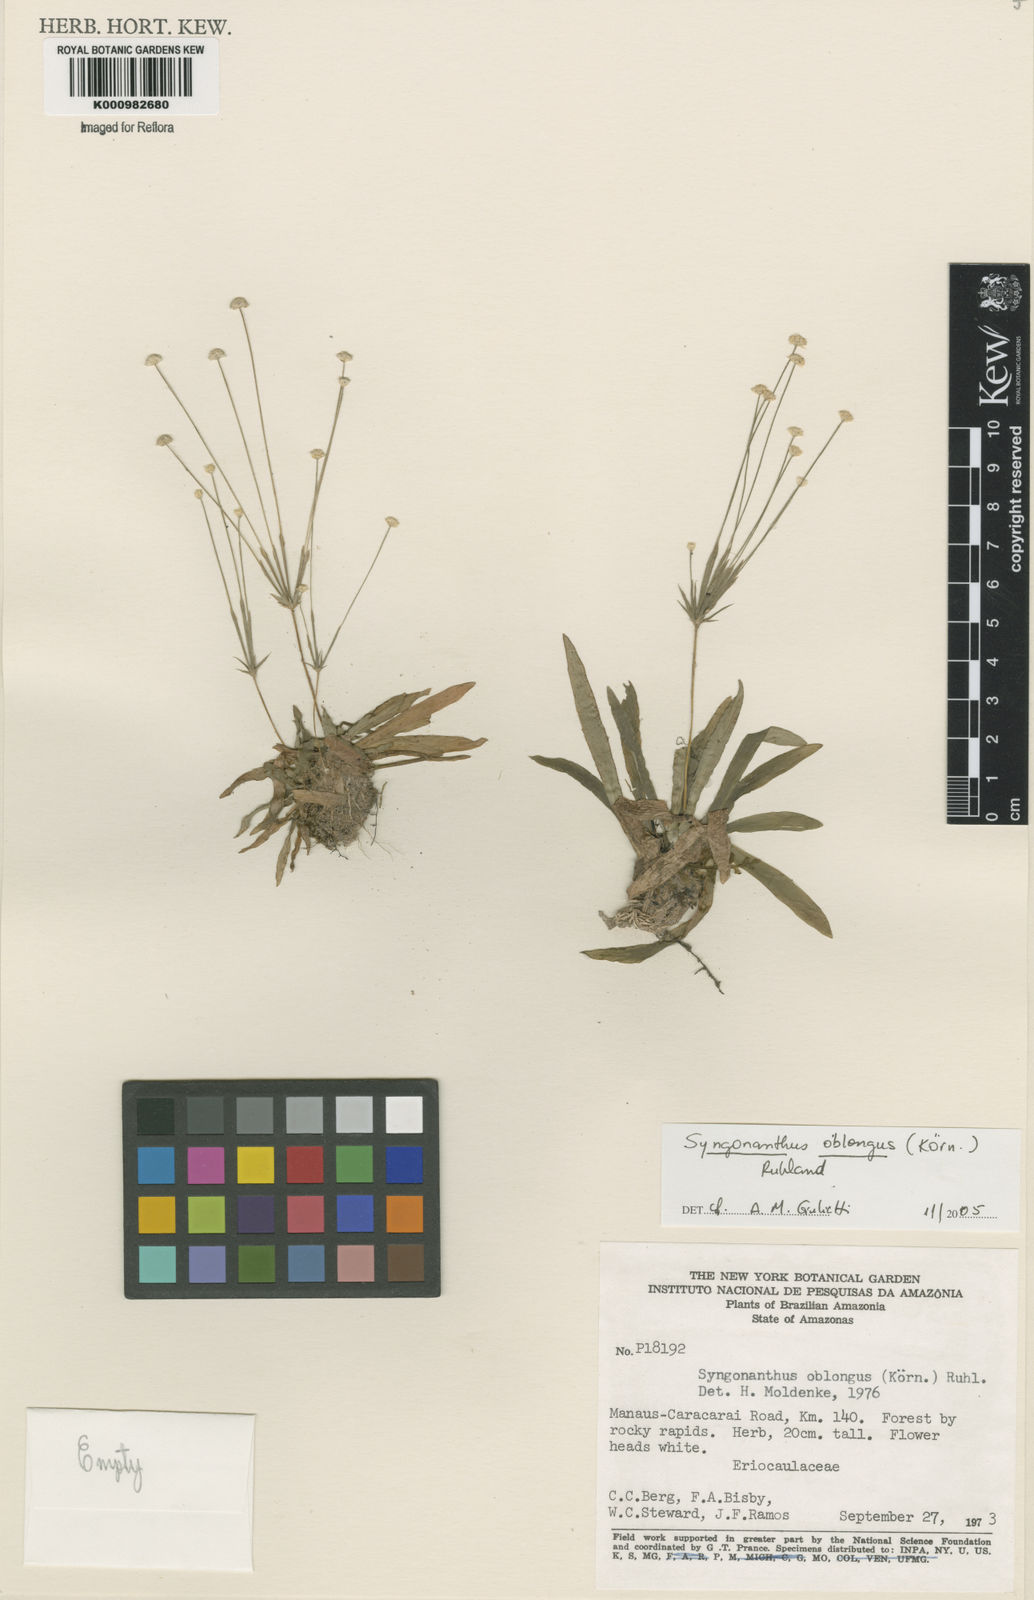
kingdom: Plantae
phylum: Tracheophyta
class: Liliopsida
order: Poales
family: Eriocaulaceae
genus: Syngonanthus
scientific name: Syngonanthus
